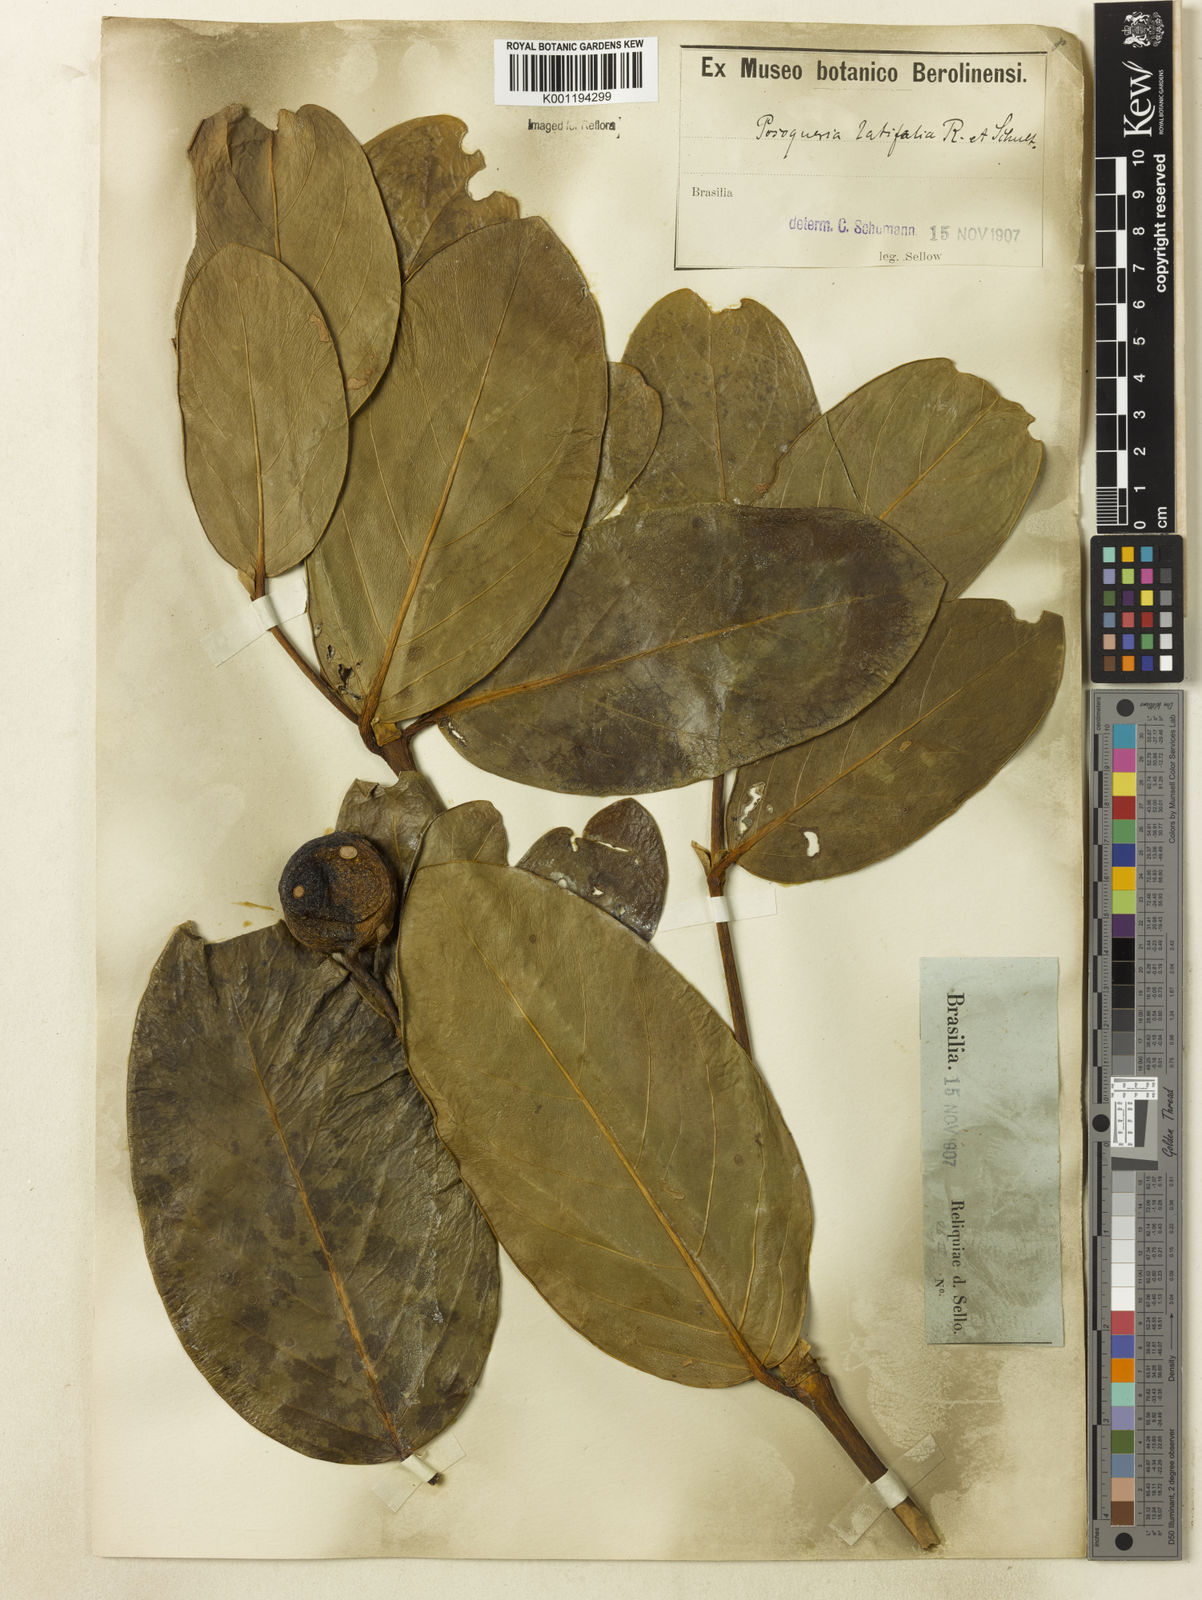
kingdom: Plantae
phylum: Tracheophyta
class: Magnoliopsida
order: Gentianales
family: Rubiaceae
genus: Posoqueria
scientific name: Posoqueria latifolia
